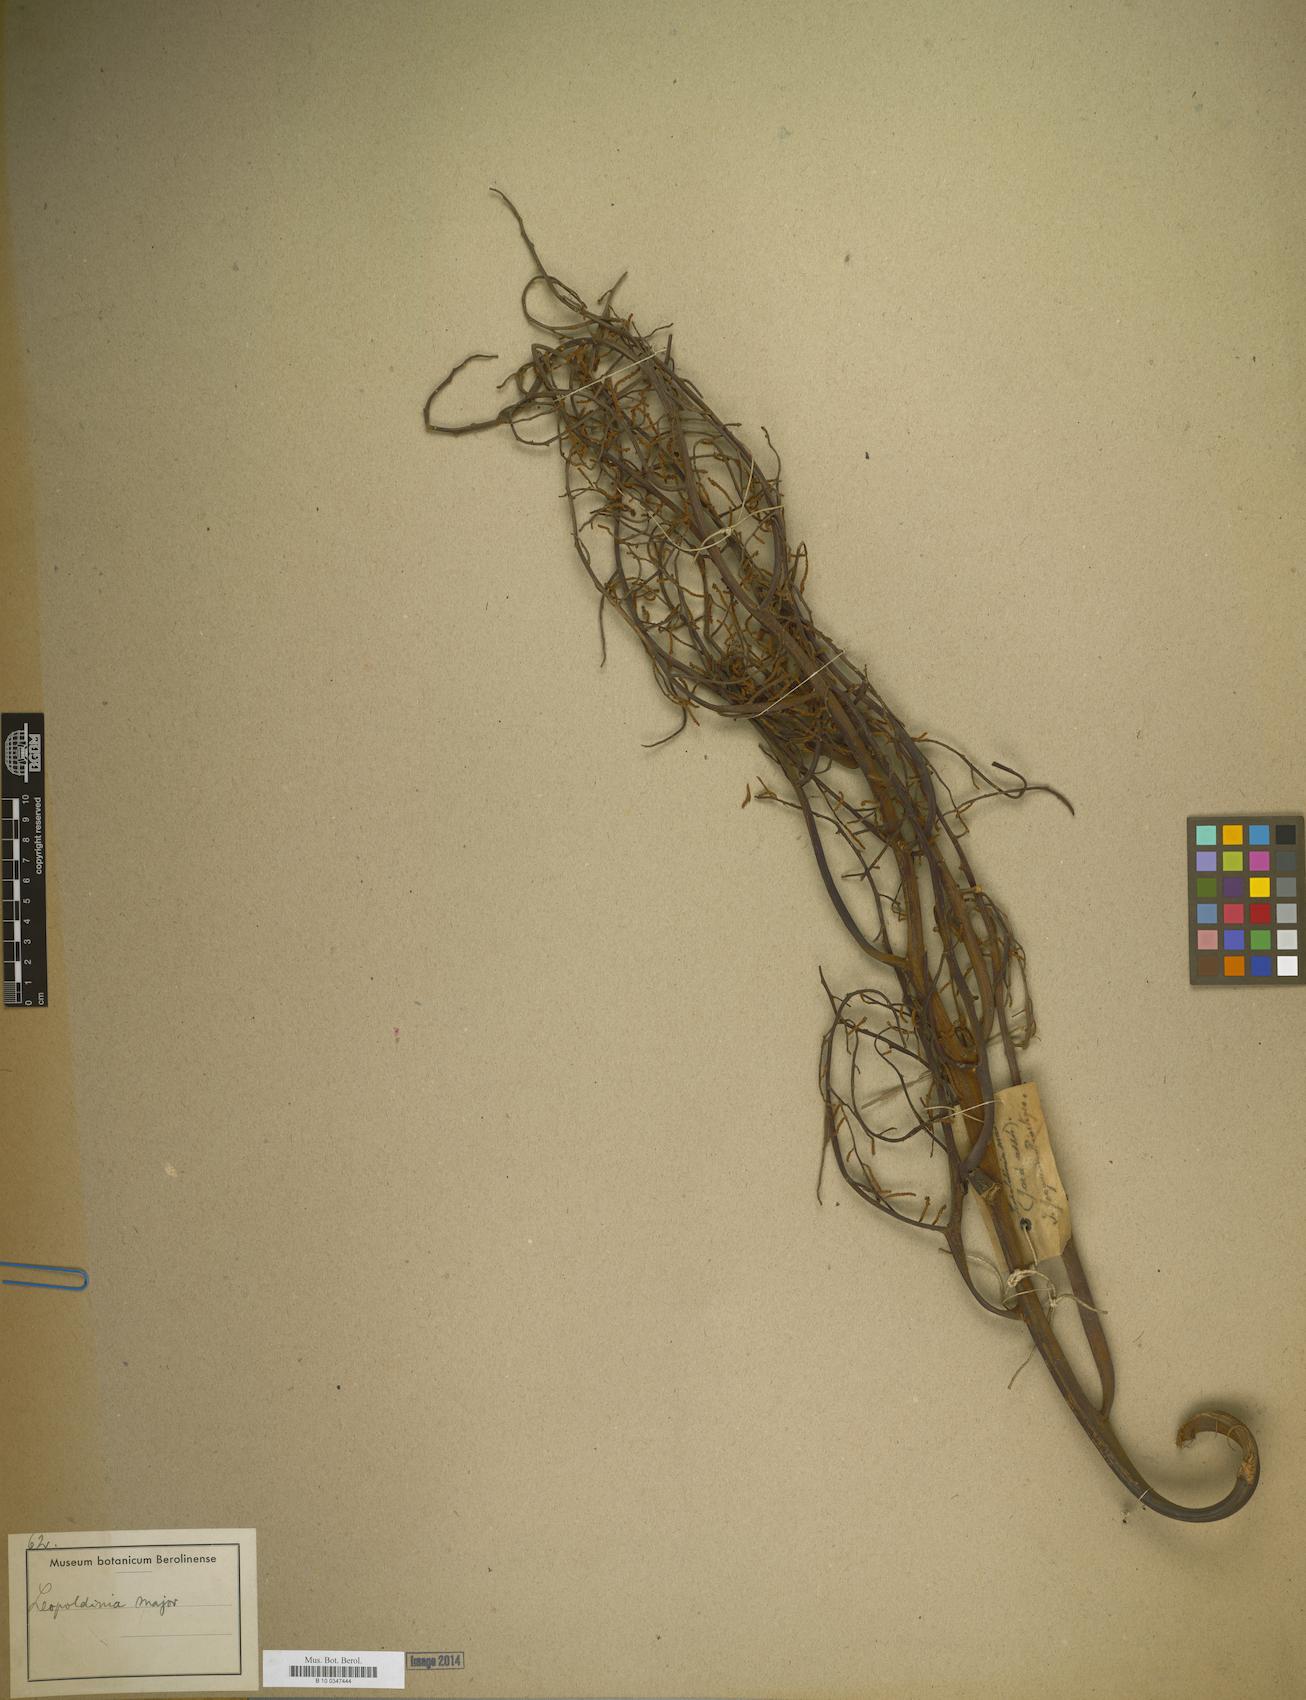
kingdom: Plantae
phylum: Tracheophyta
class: Liliopsida
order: Arecales
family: Arecaceae
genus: Leopoldinia
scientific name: Leopoldinia major
